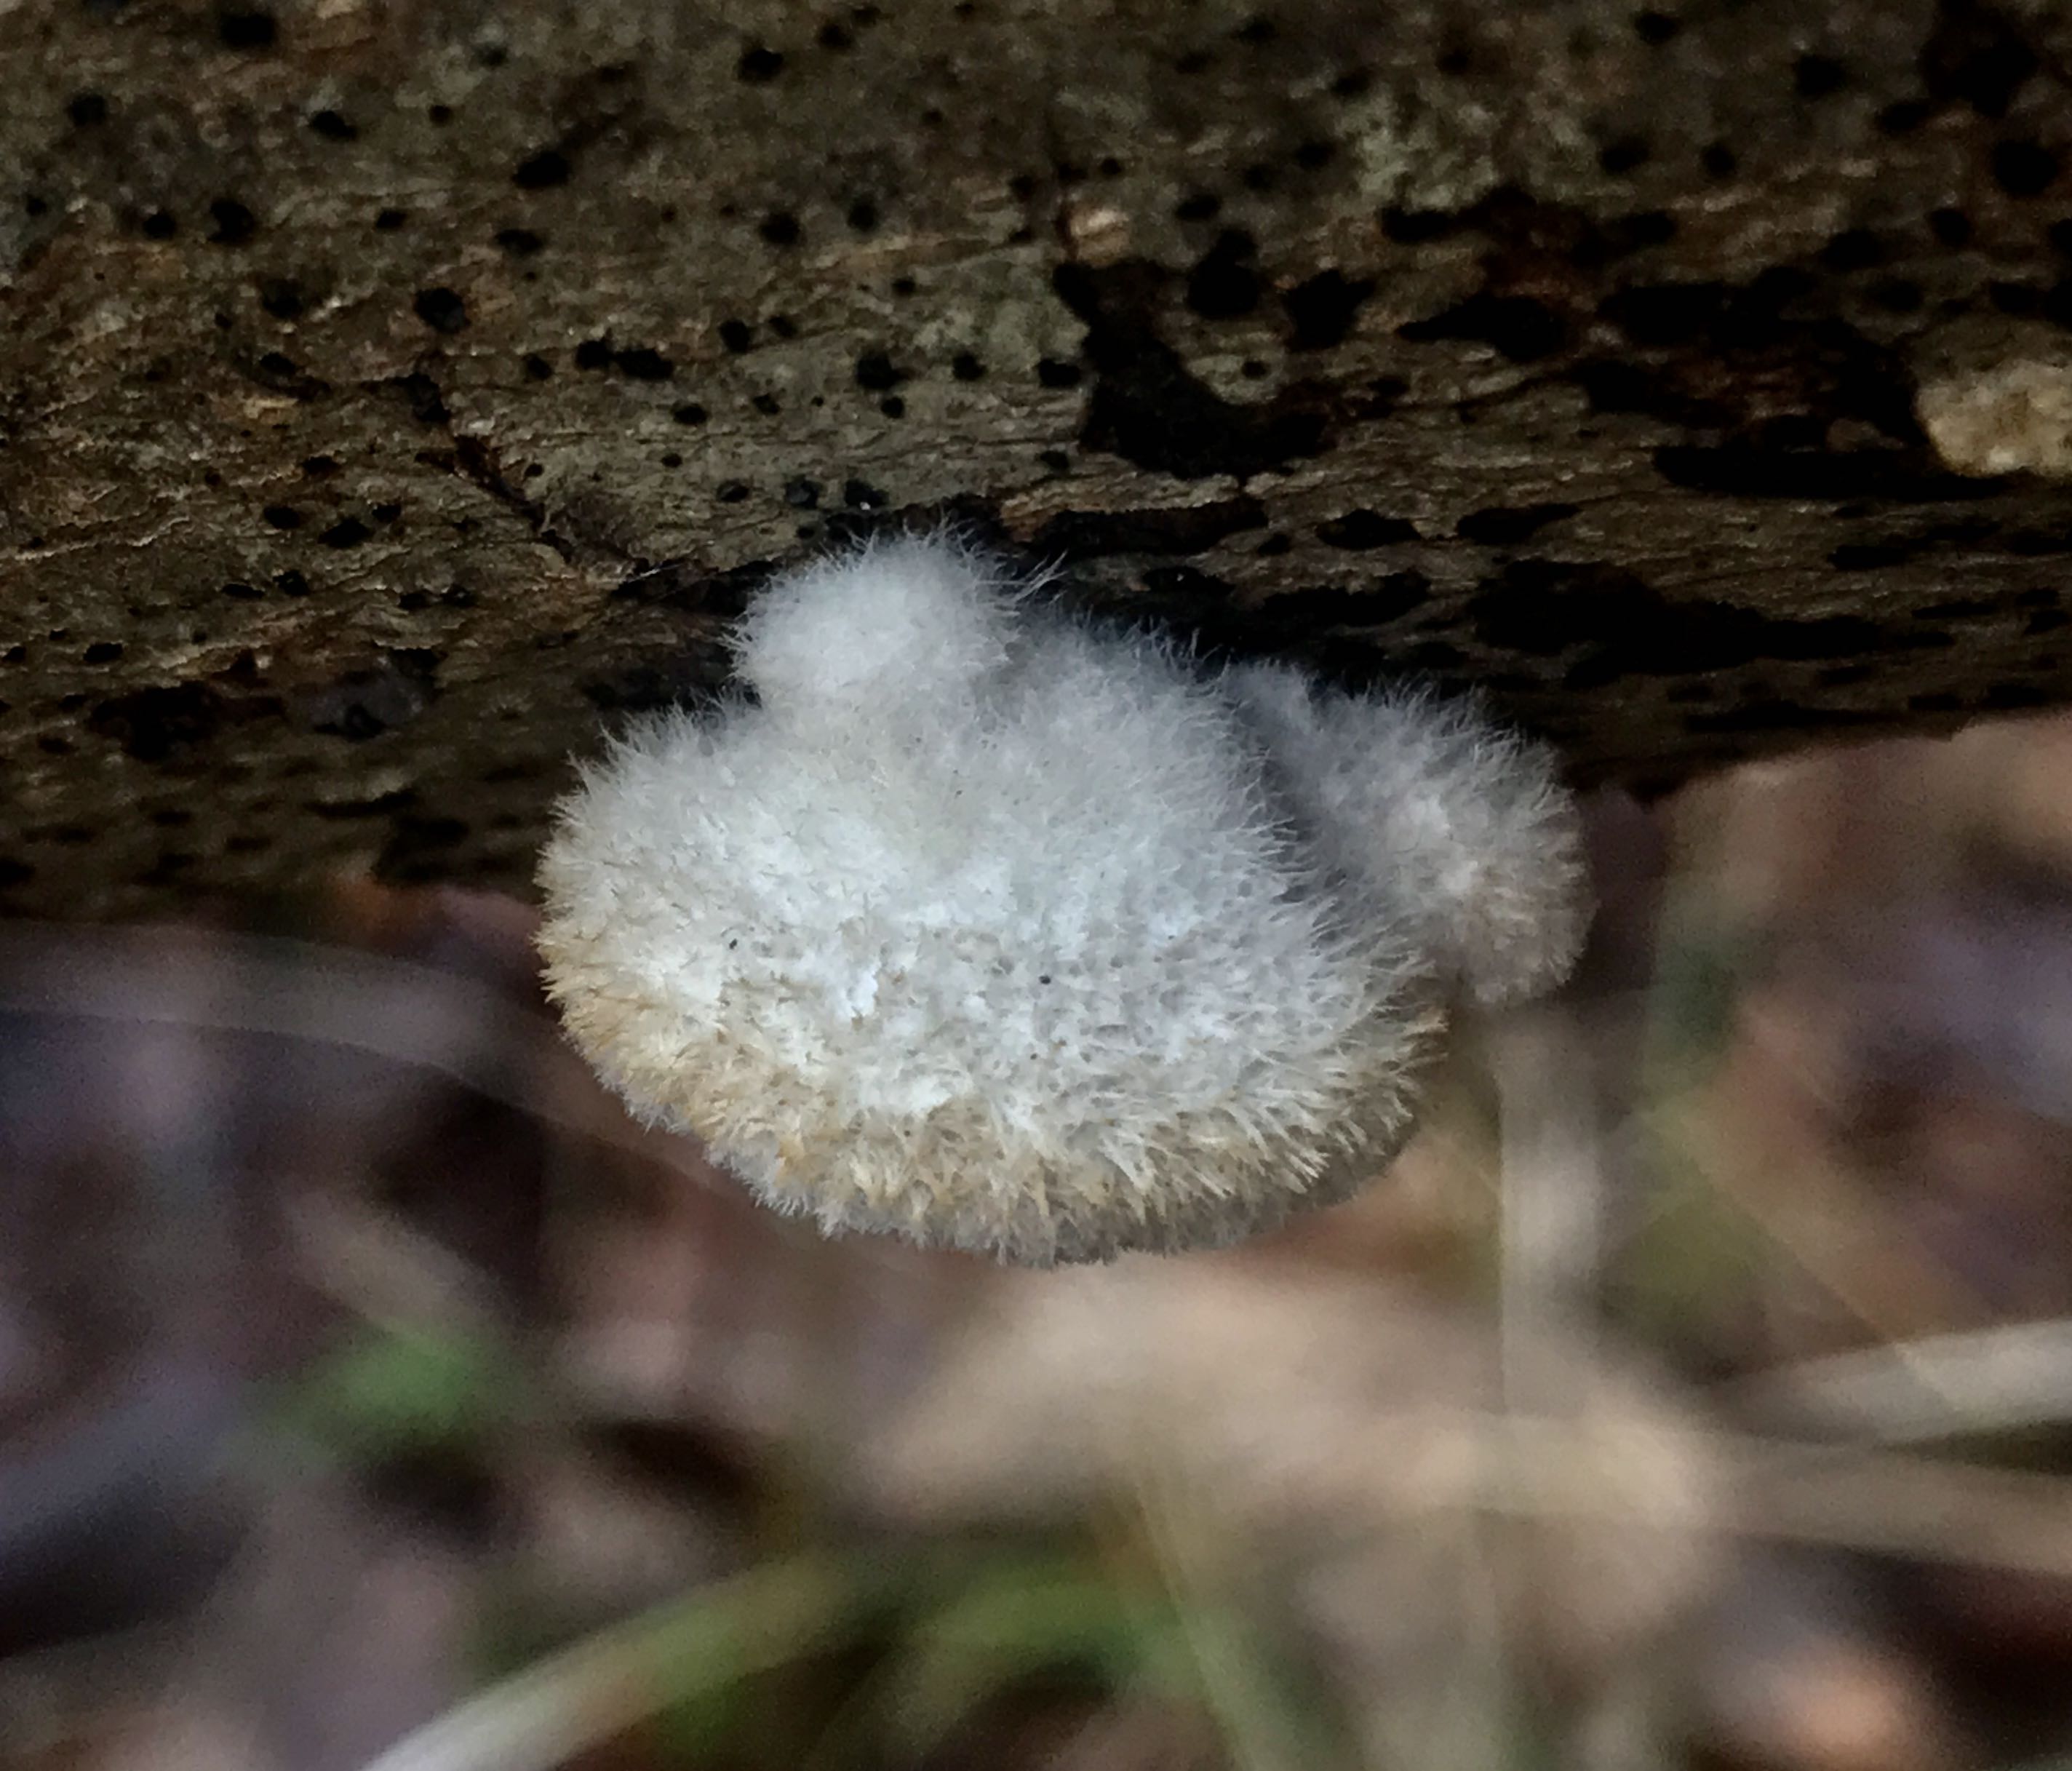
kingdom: Fungi
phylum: Basidiomycota
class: Agaricomycetes
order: Agaricales
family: Schizophyllaceae
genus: Schizophyllum
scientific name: Schizophyllum commune
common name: kløvblad
